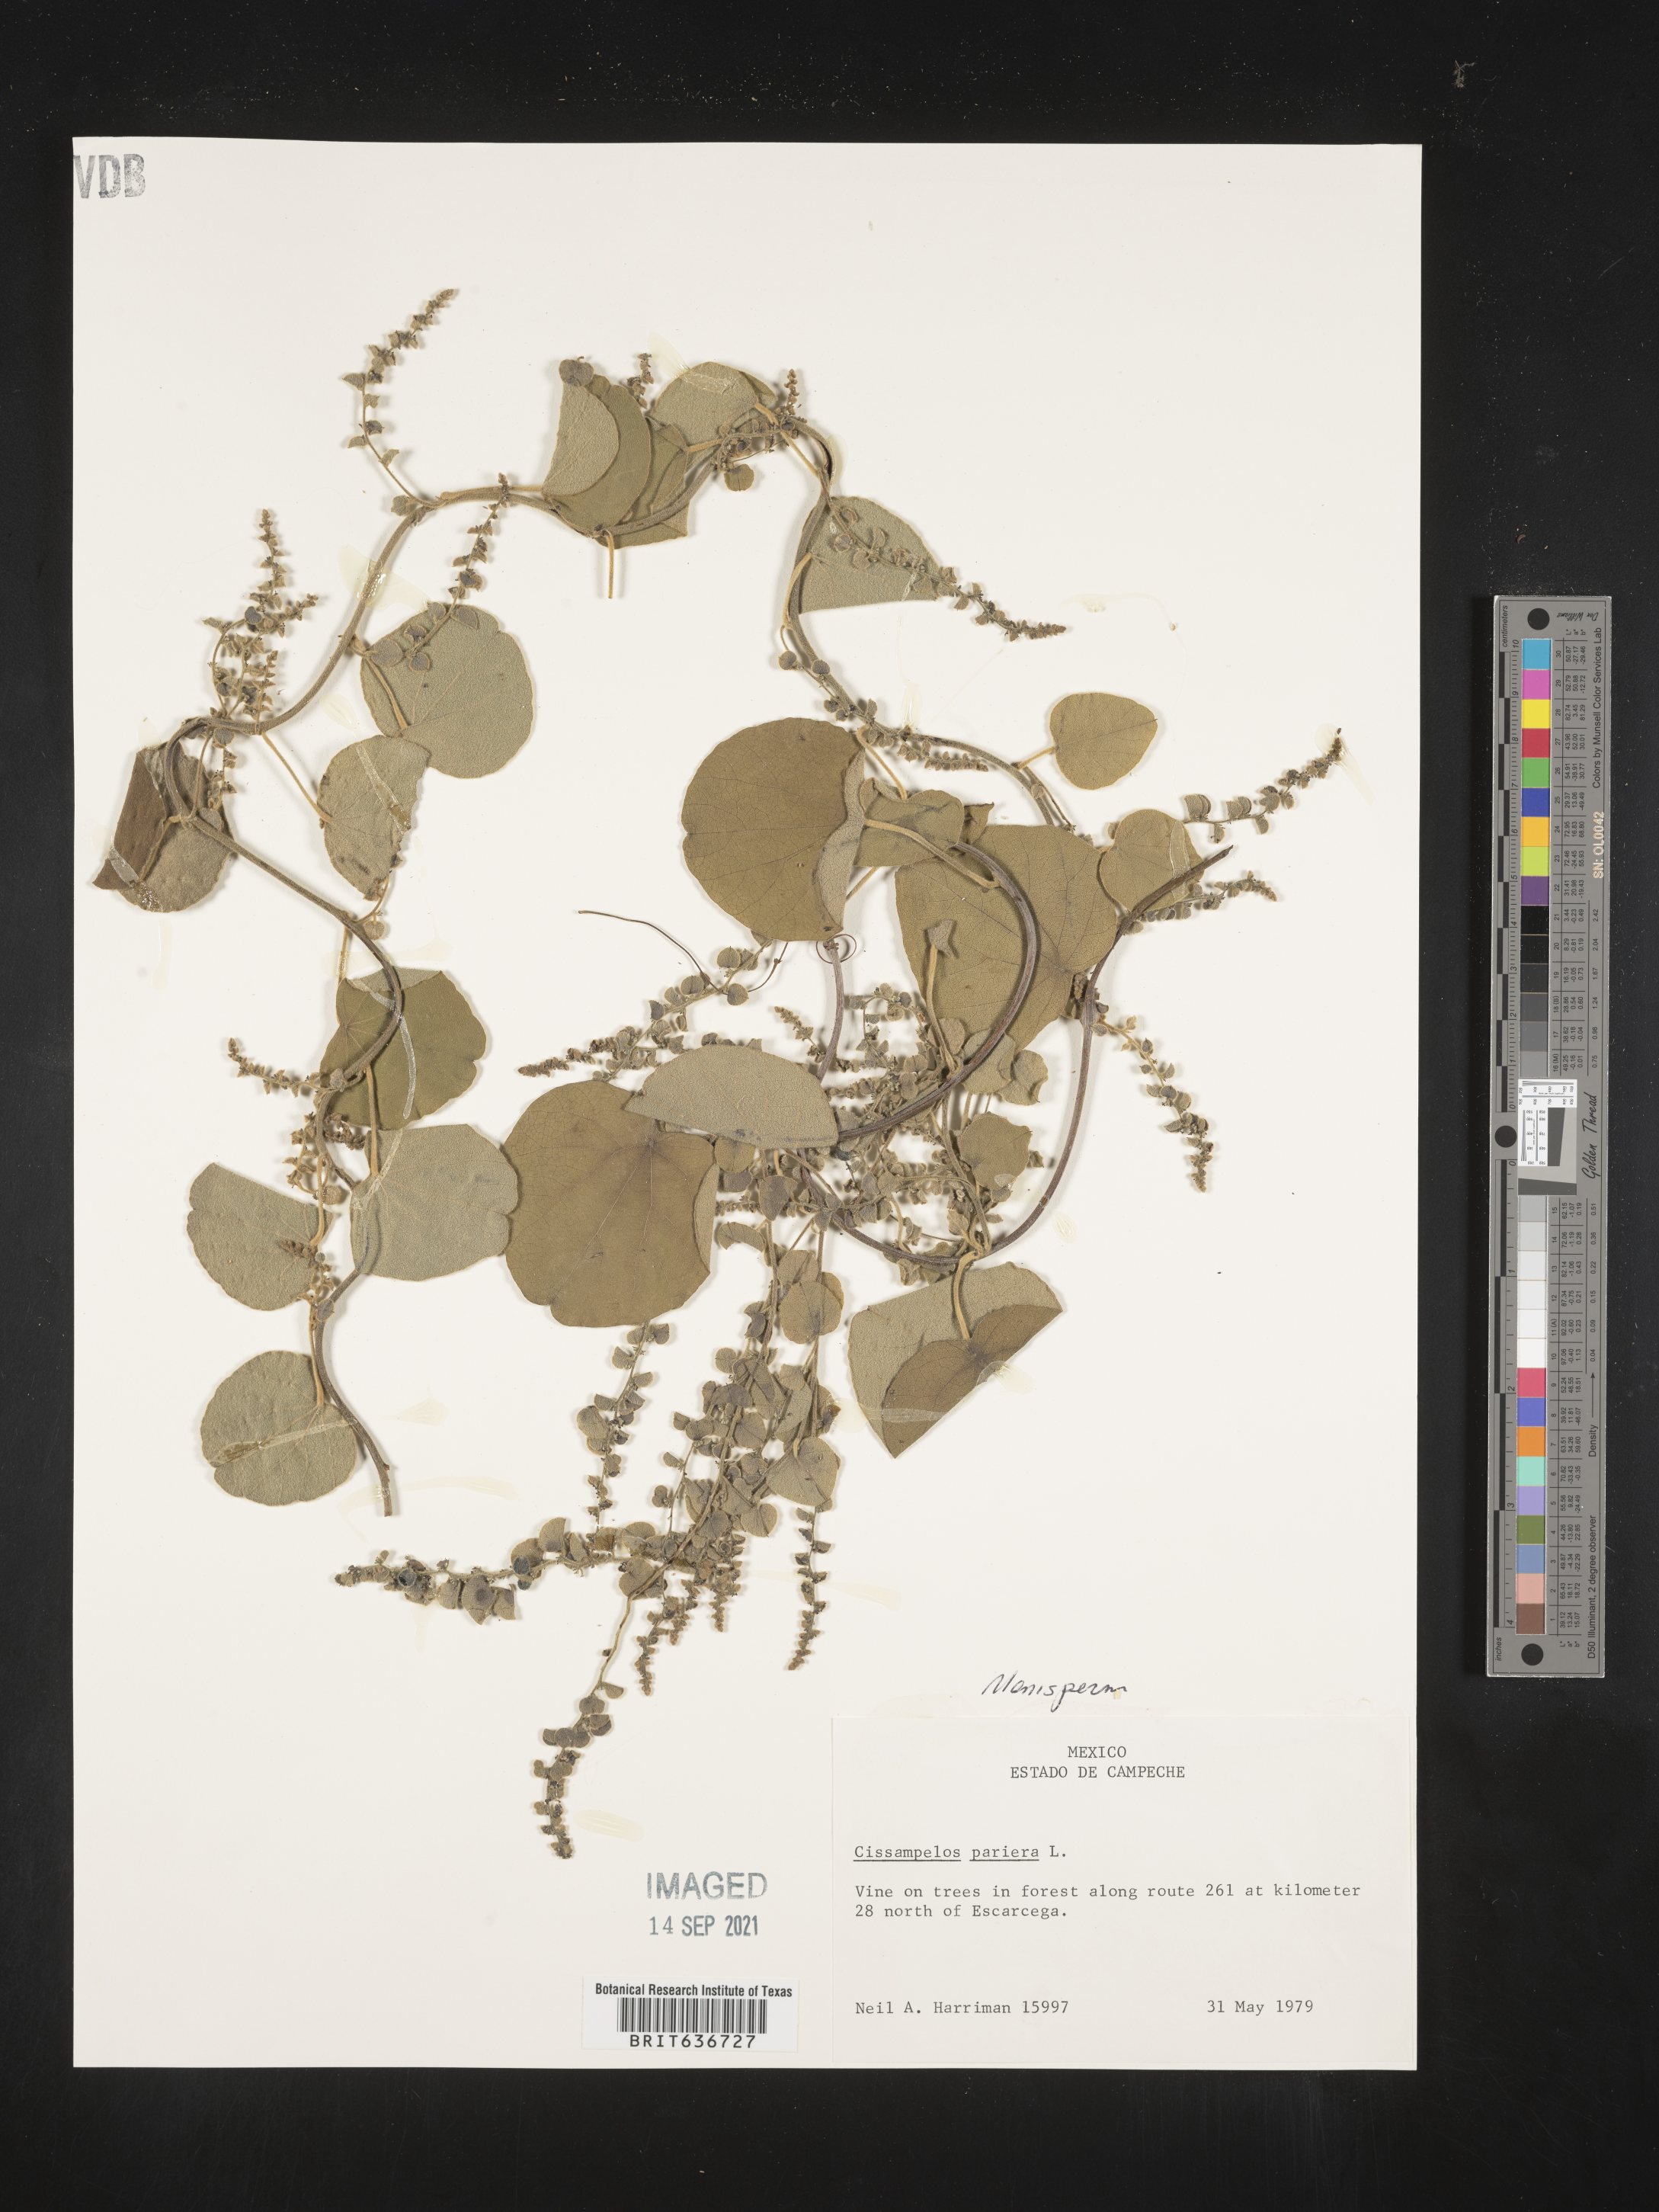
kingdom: Plantae
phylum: Tracheophyta
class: Magnoliopsida
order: Ranunculales
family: Menispermaceae
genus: Cissampelos
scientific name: Cissampelos
